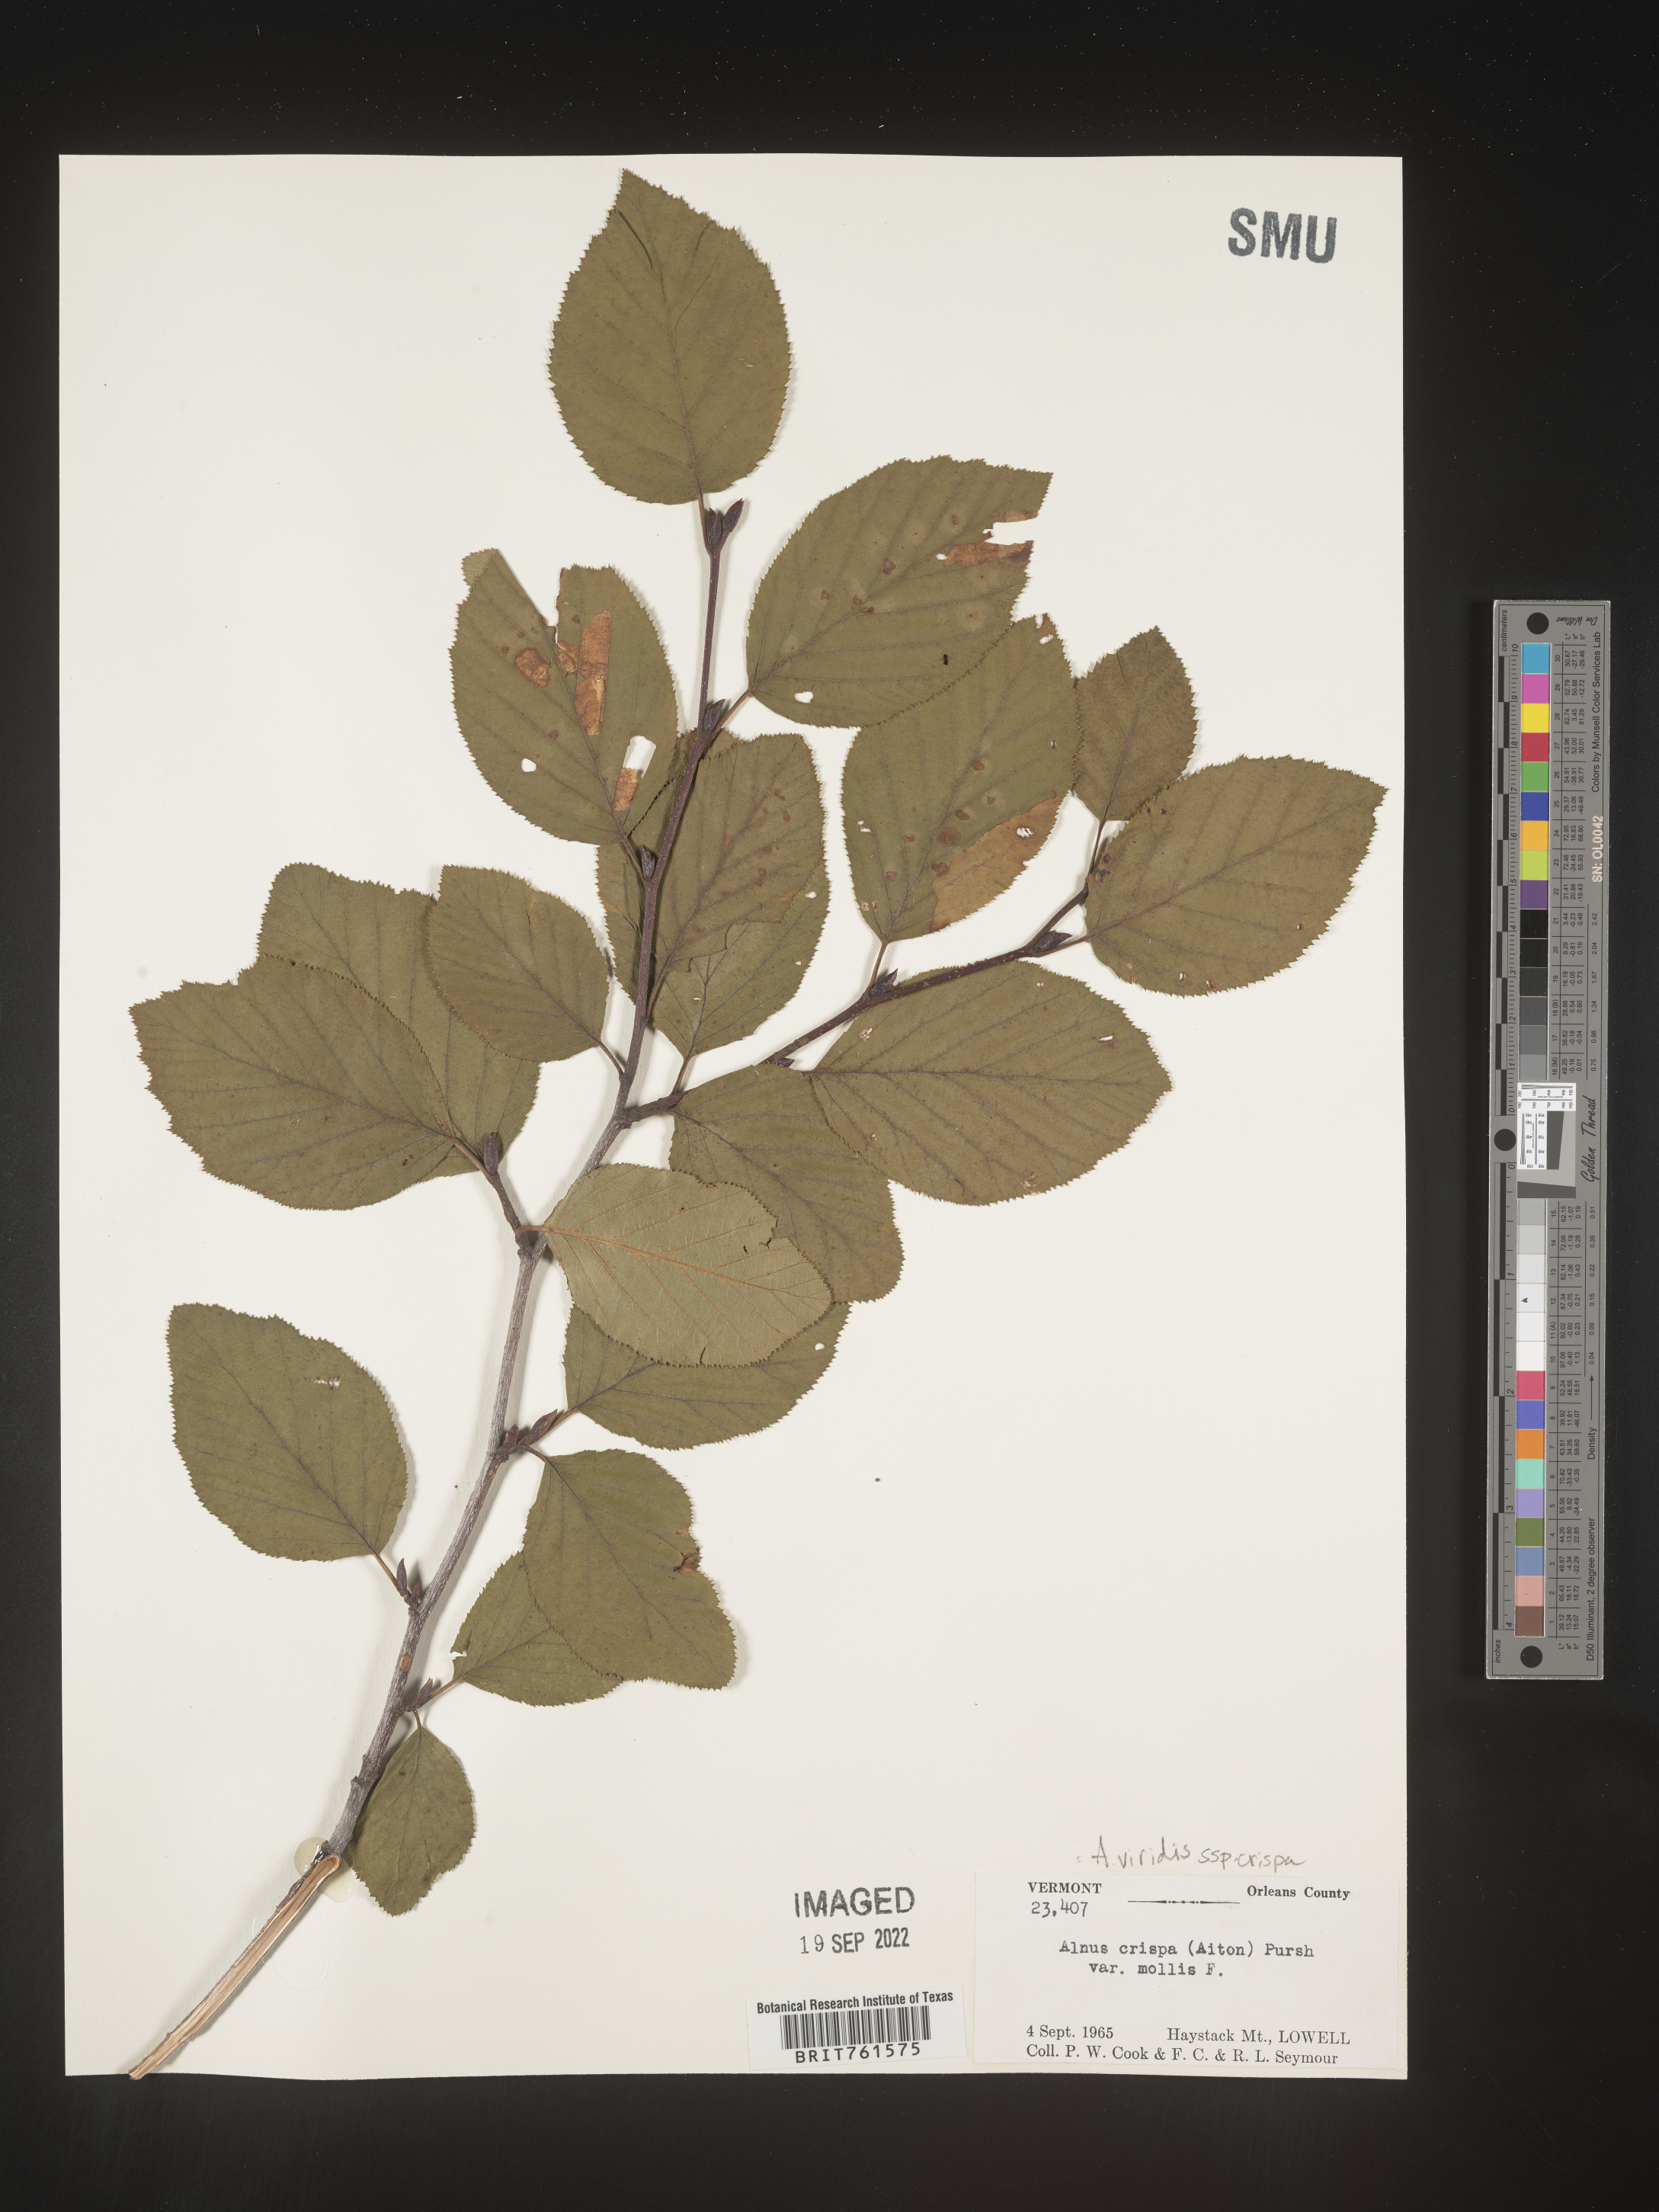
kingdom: Plantae
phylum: Tracheophyta
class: Magnoliopsida
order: Fagales
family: Betulaceae
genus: Alnus
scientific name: Alnus alnobetula
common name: Green alder
